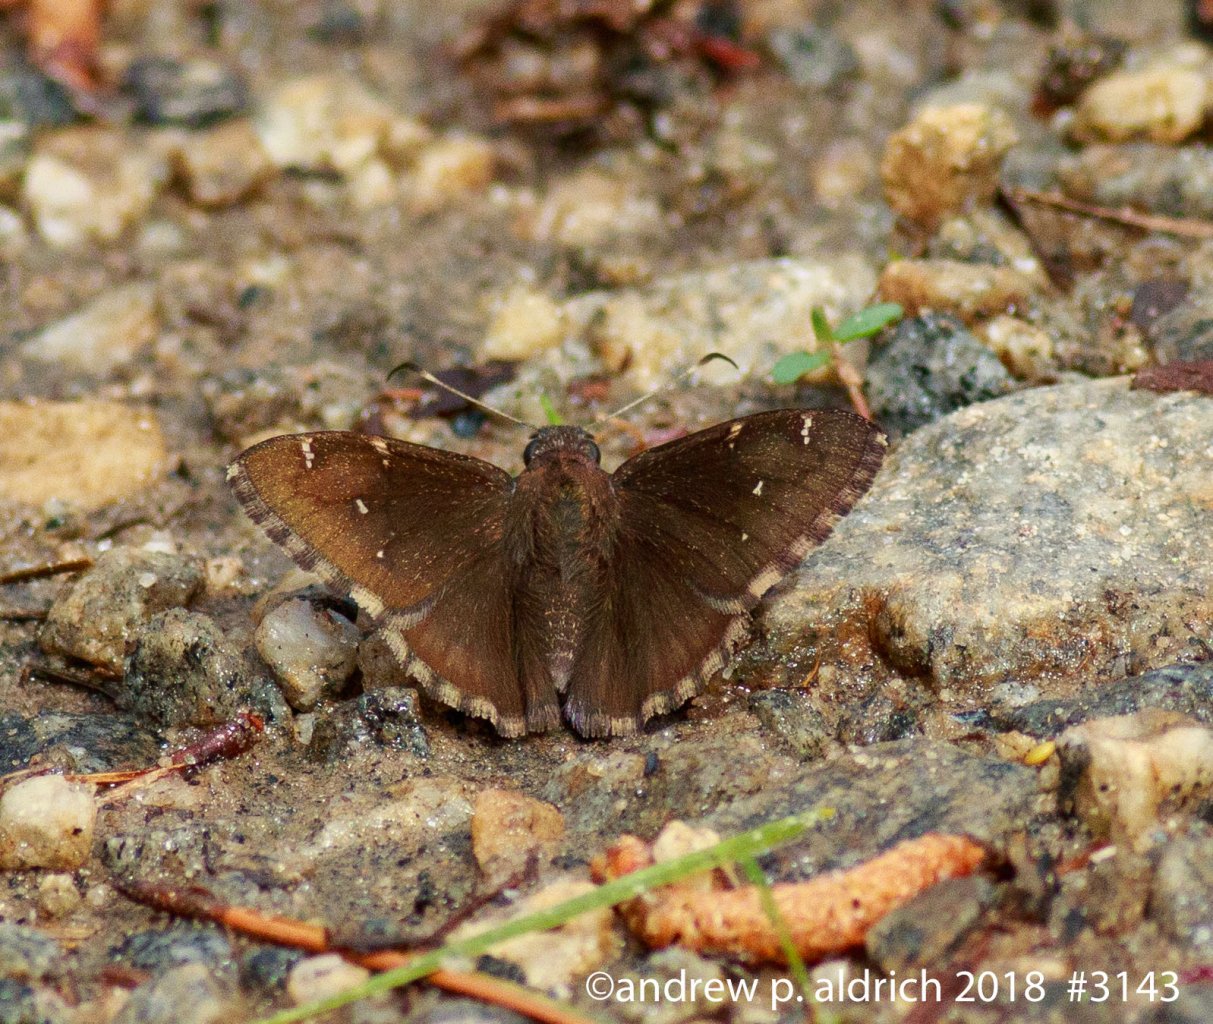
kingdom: Animalia
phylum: Arthropoda
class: Insecta
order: Lepidoptera
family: Hesperiidae
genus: Autochton
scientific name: Autochton
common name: Northern Cloudywing
